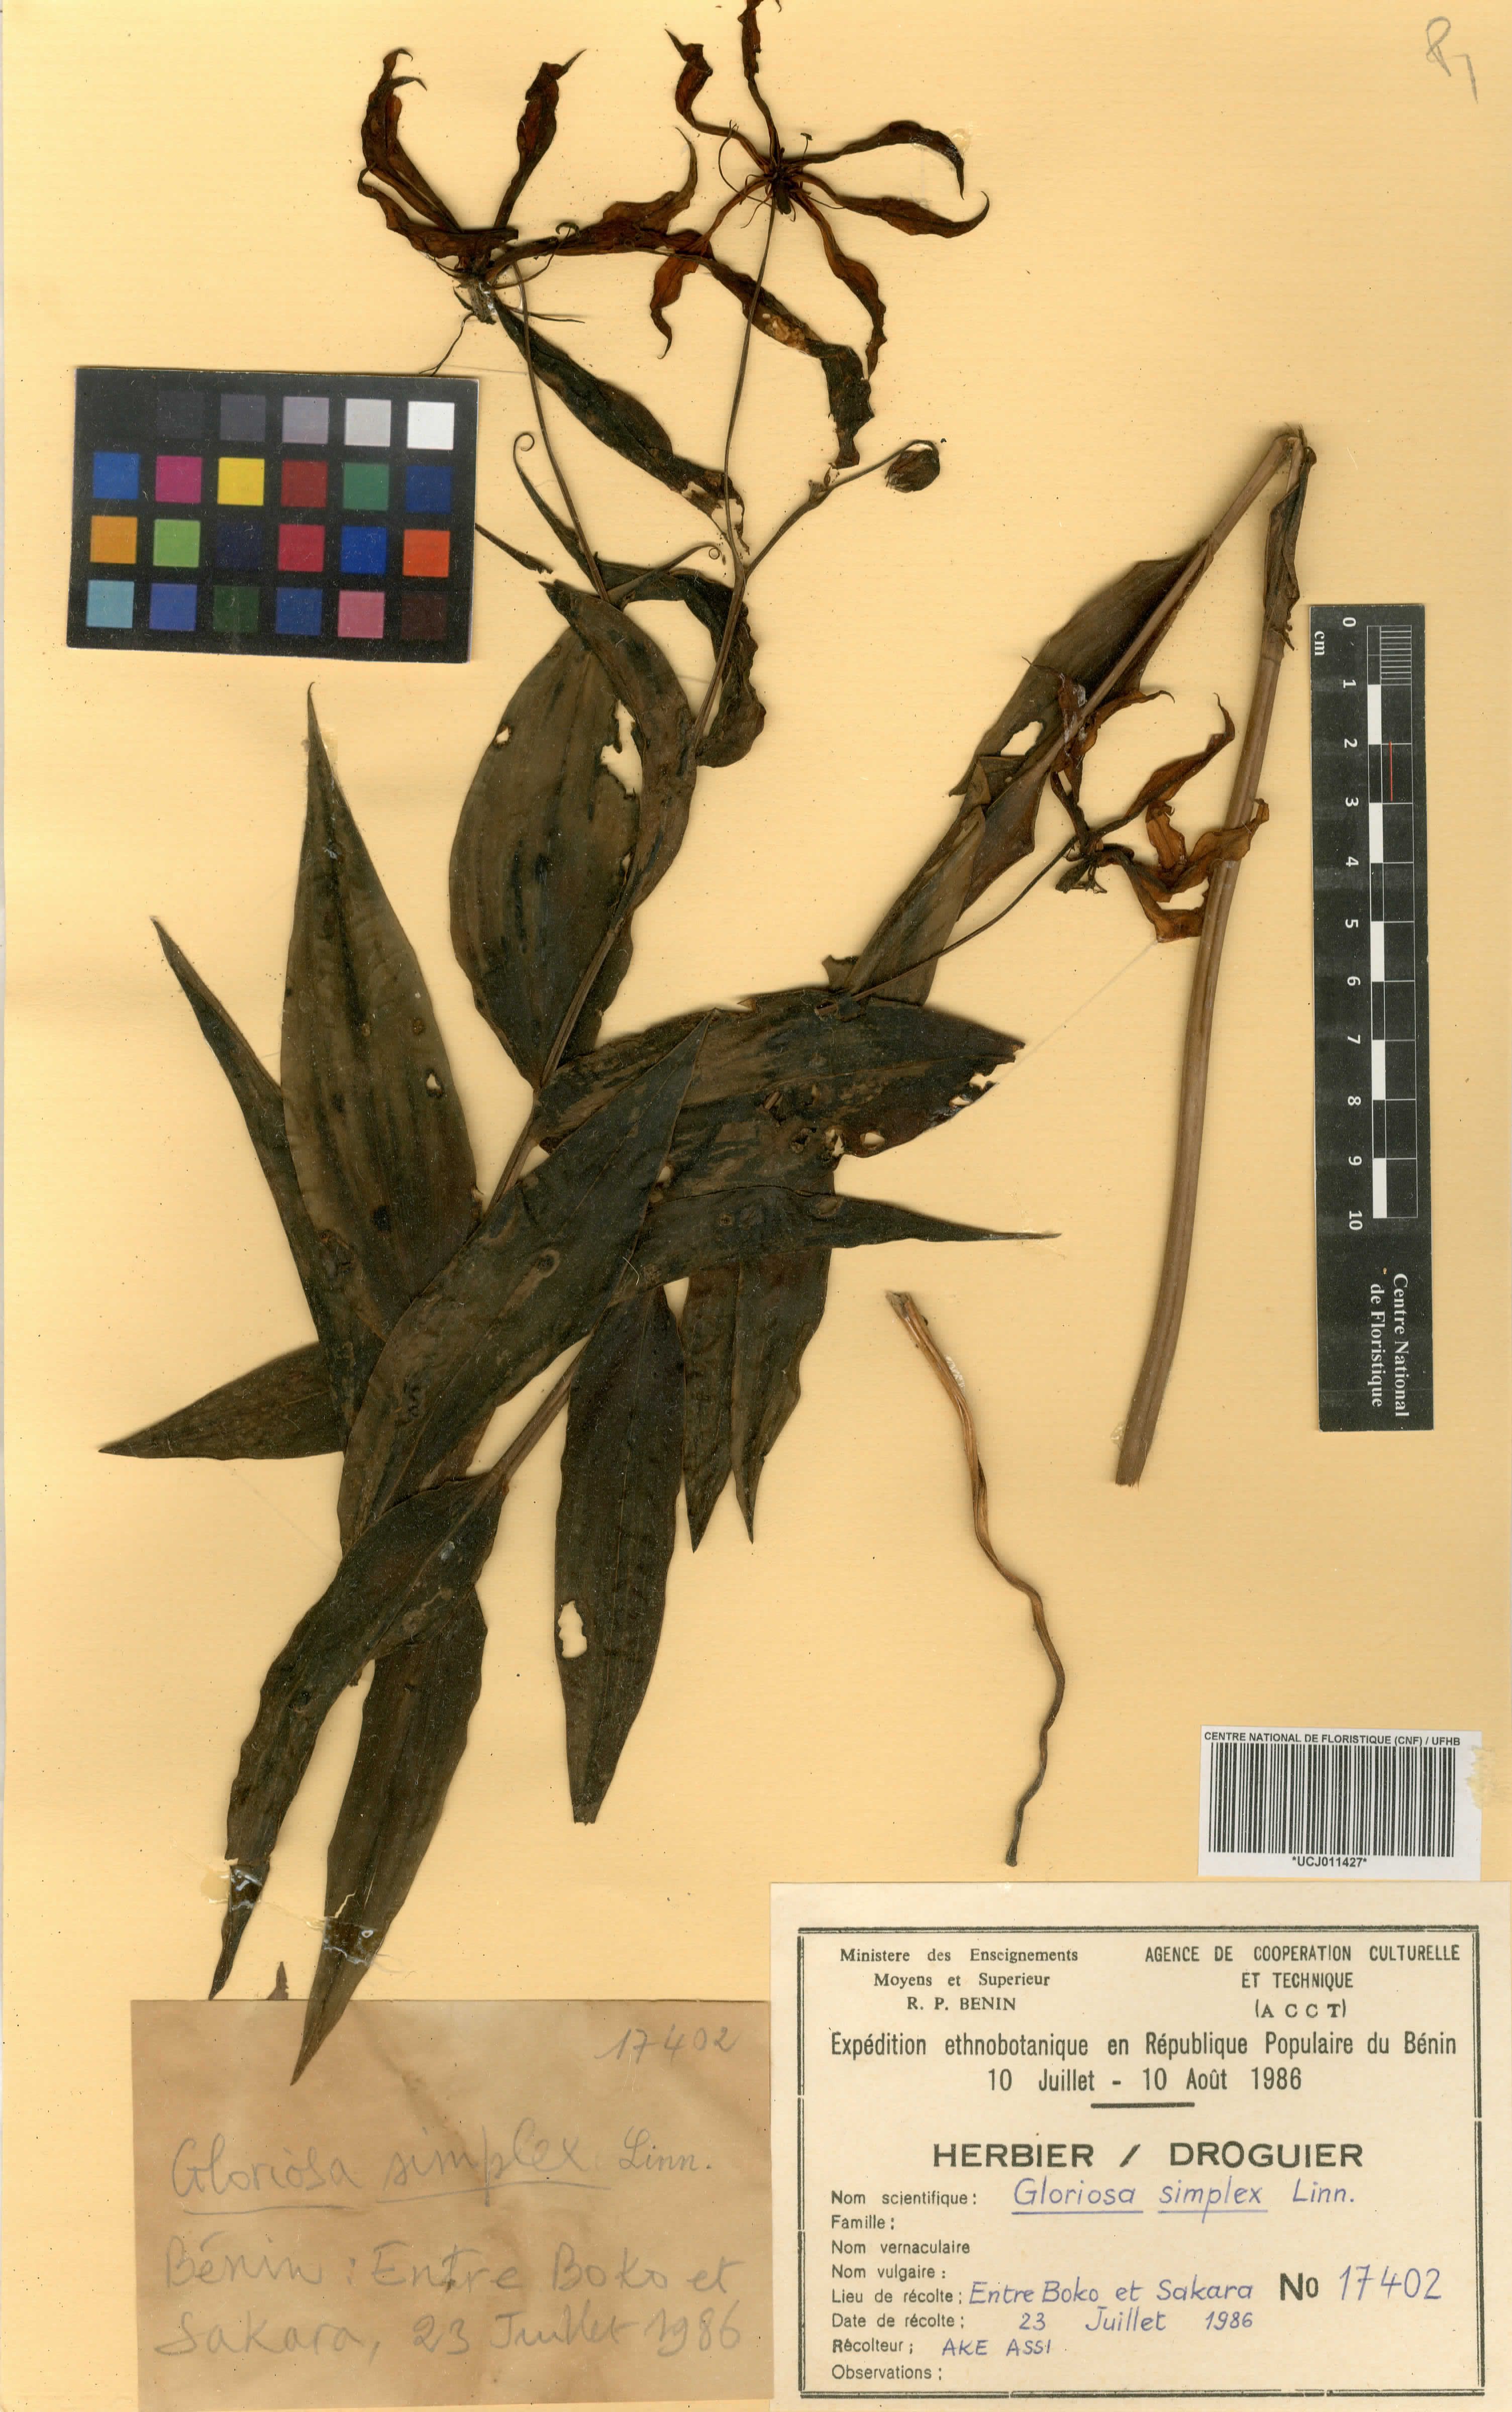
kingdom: Plantae
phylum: Tracheophyta
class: Liliopsida
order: Liliales
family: Colchicaceae
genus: Gloriosa
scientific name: Gloriosa simplex
